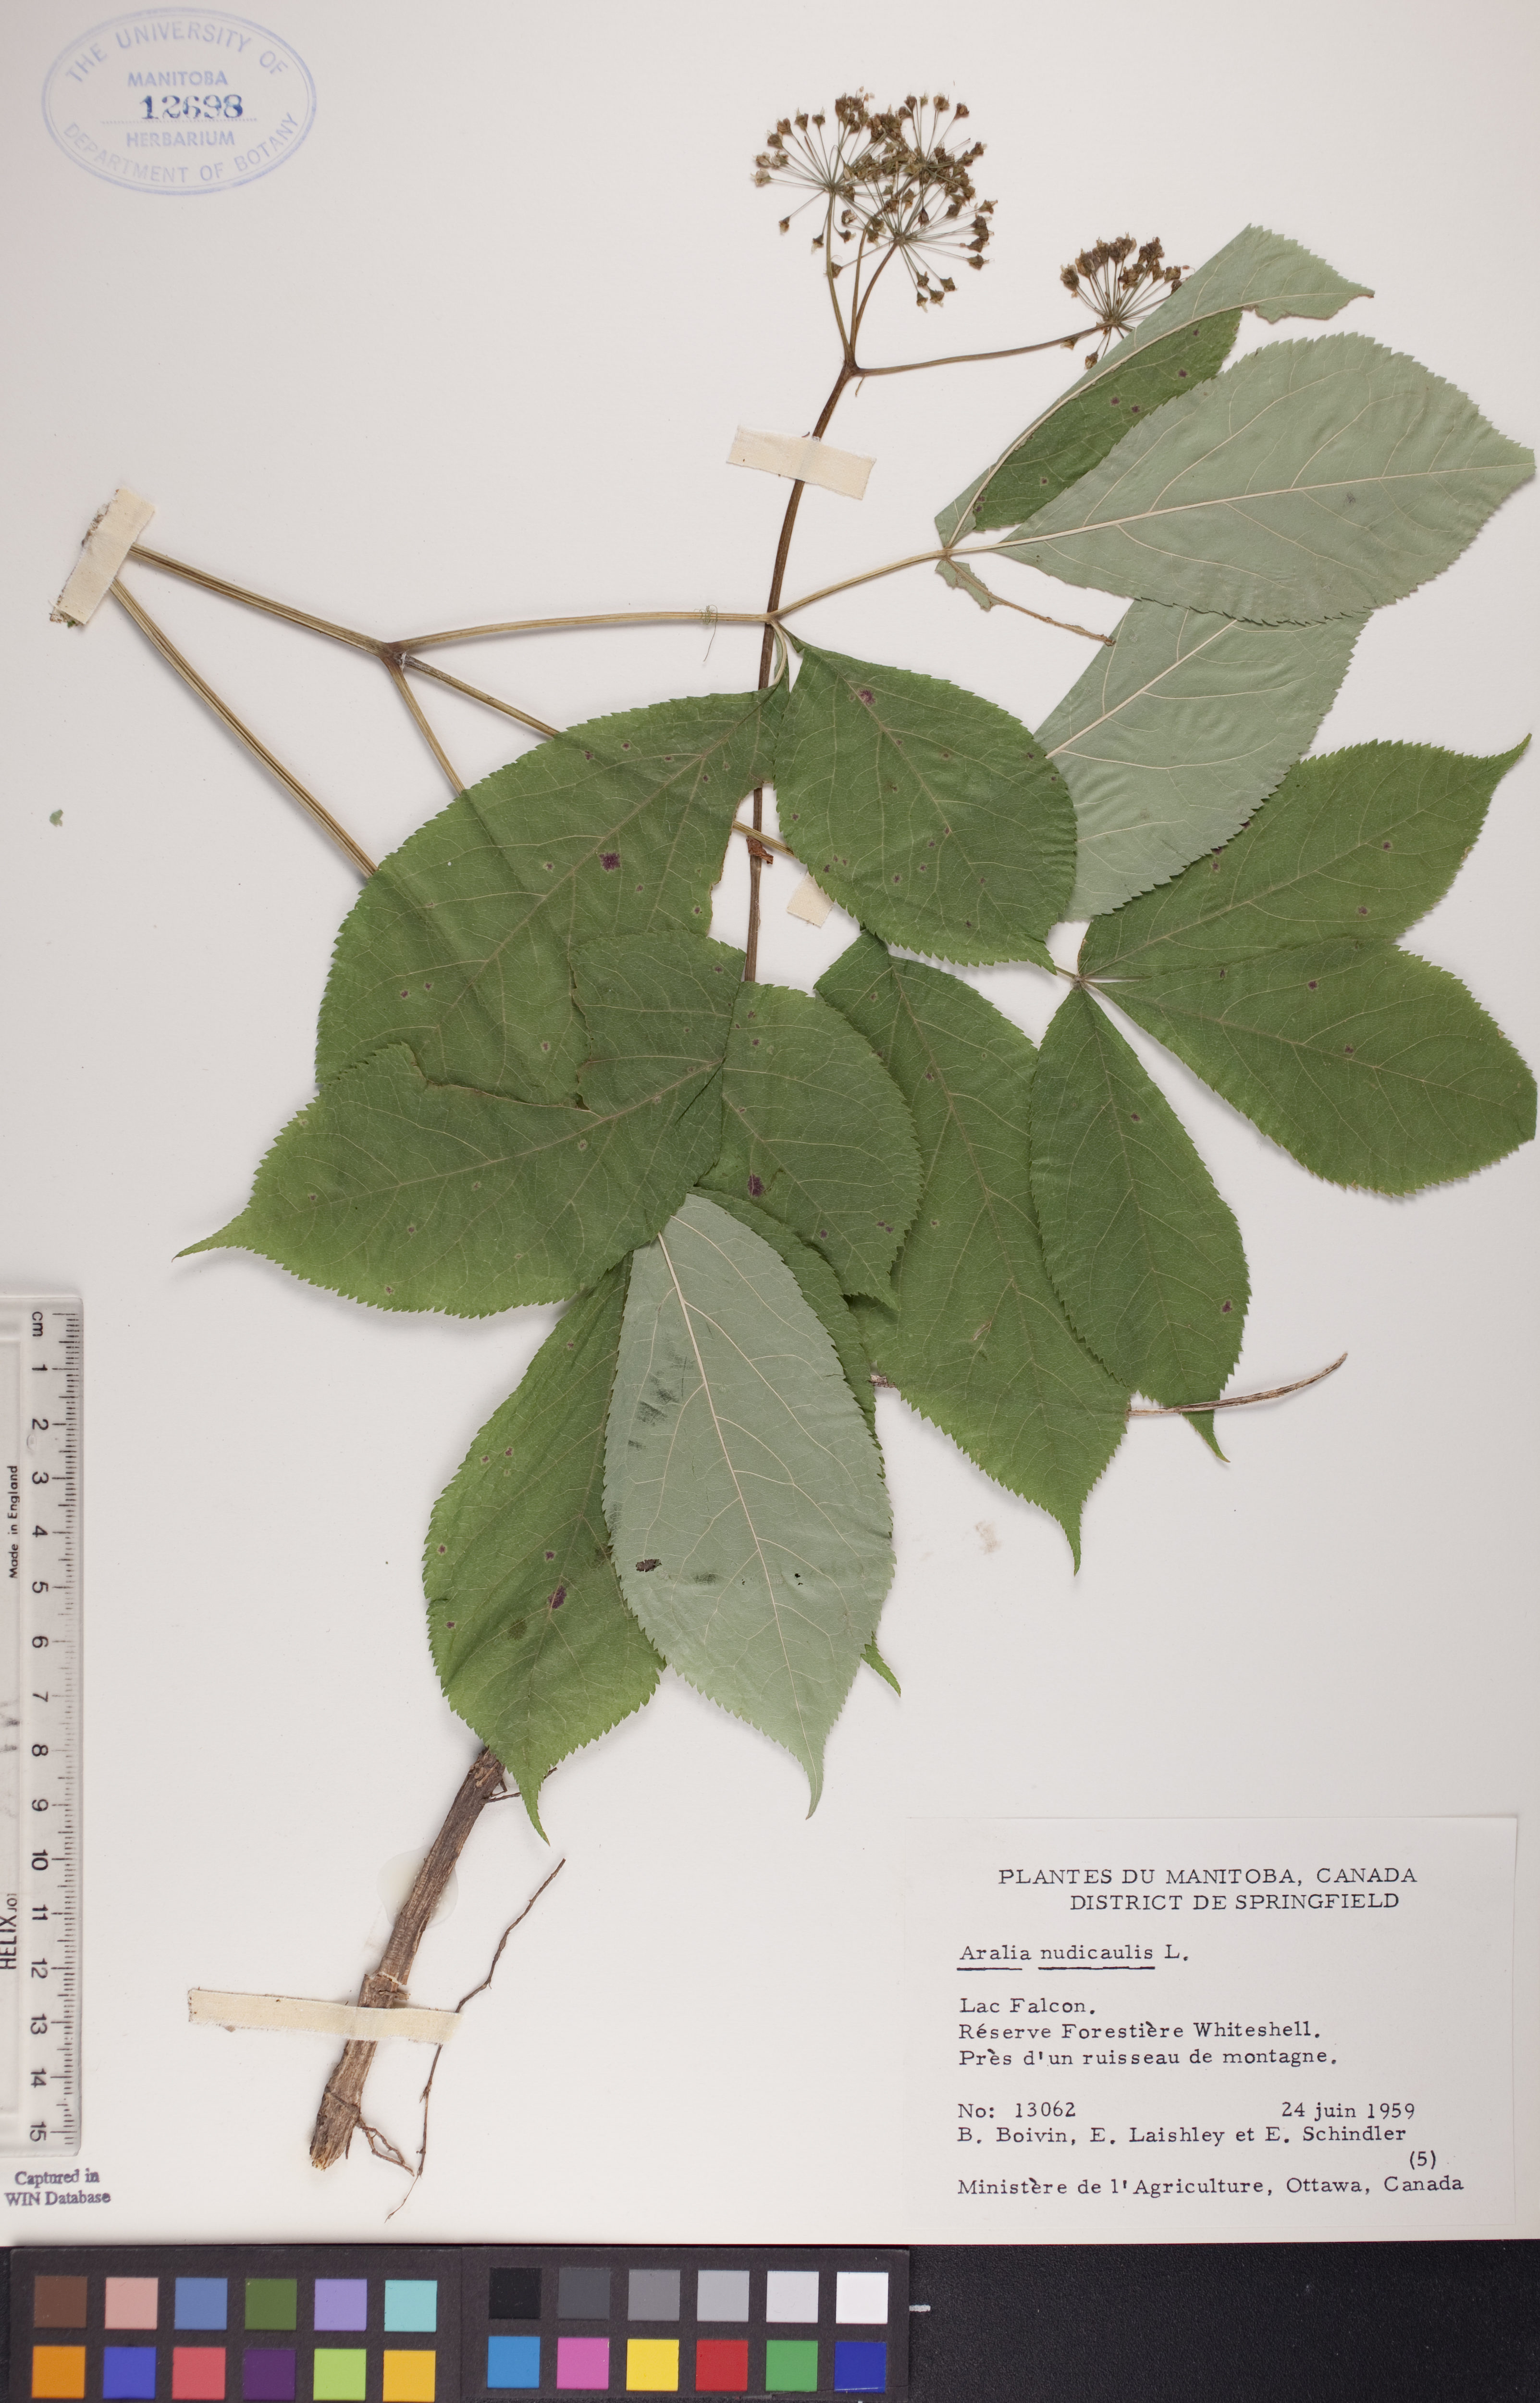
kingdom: Plantae
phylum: Tracheophyta
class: Magnoliopsida
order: Apiales
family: Araliaceae
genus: Aralia
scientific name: Aralia nudicaulis
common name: Wild sarsaparilla
